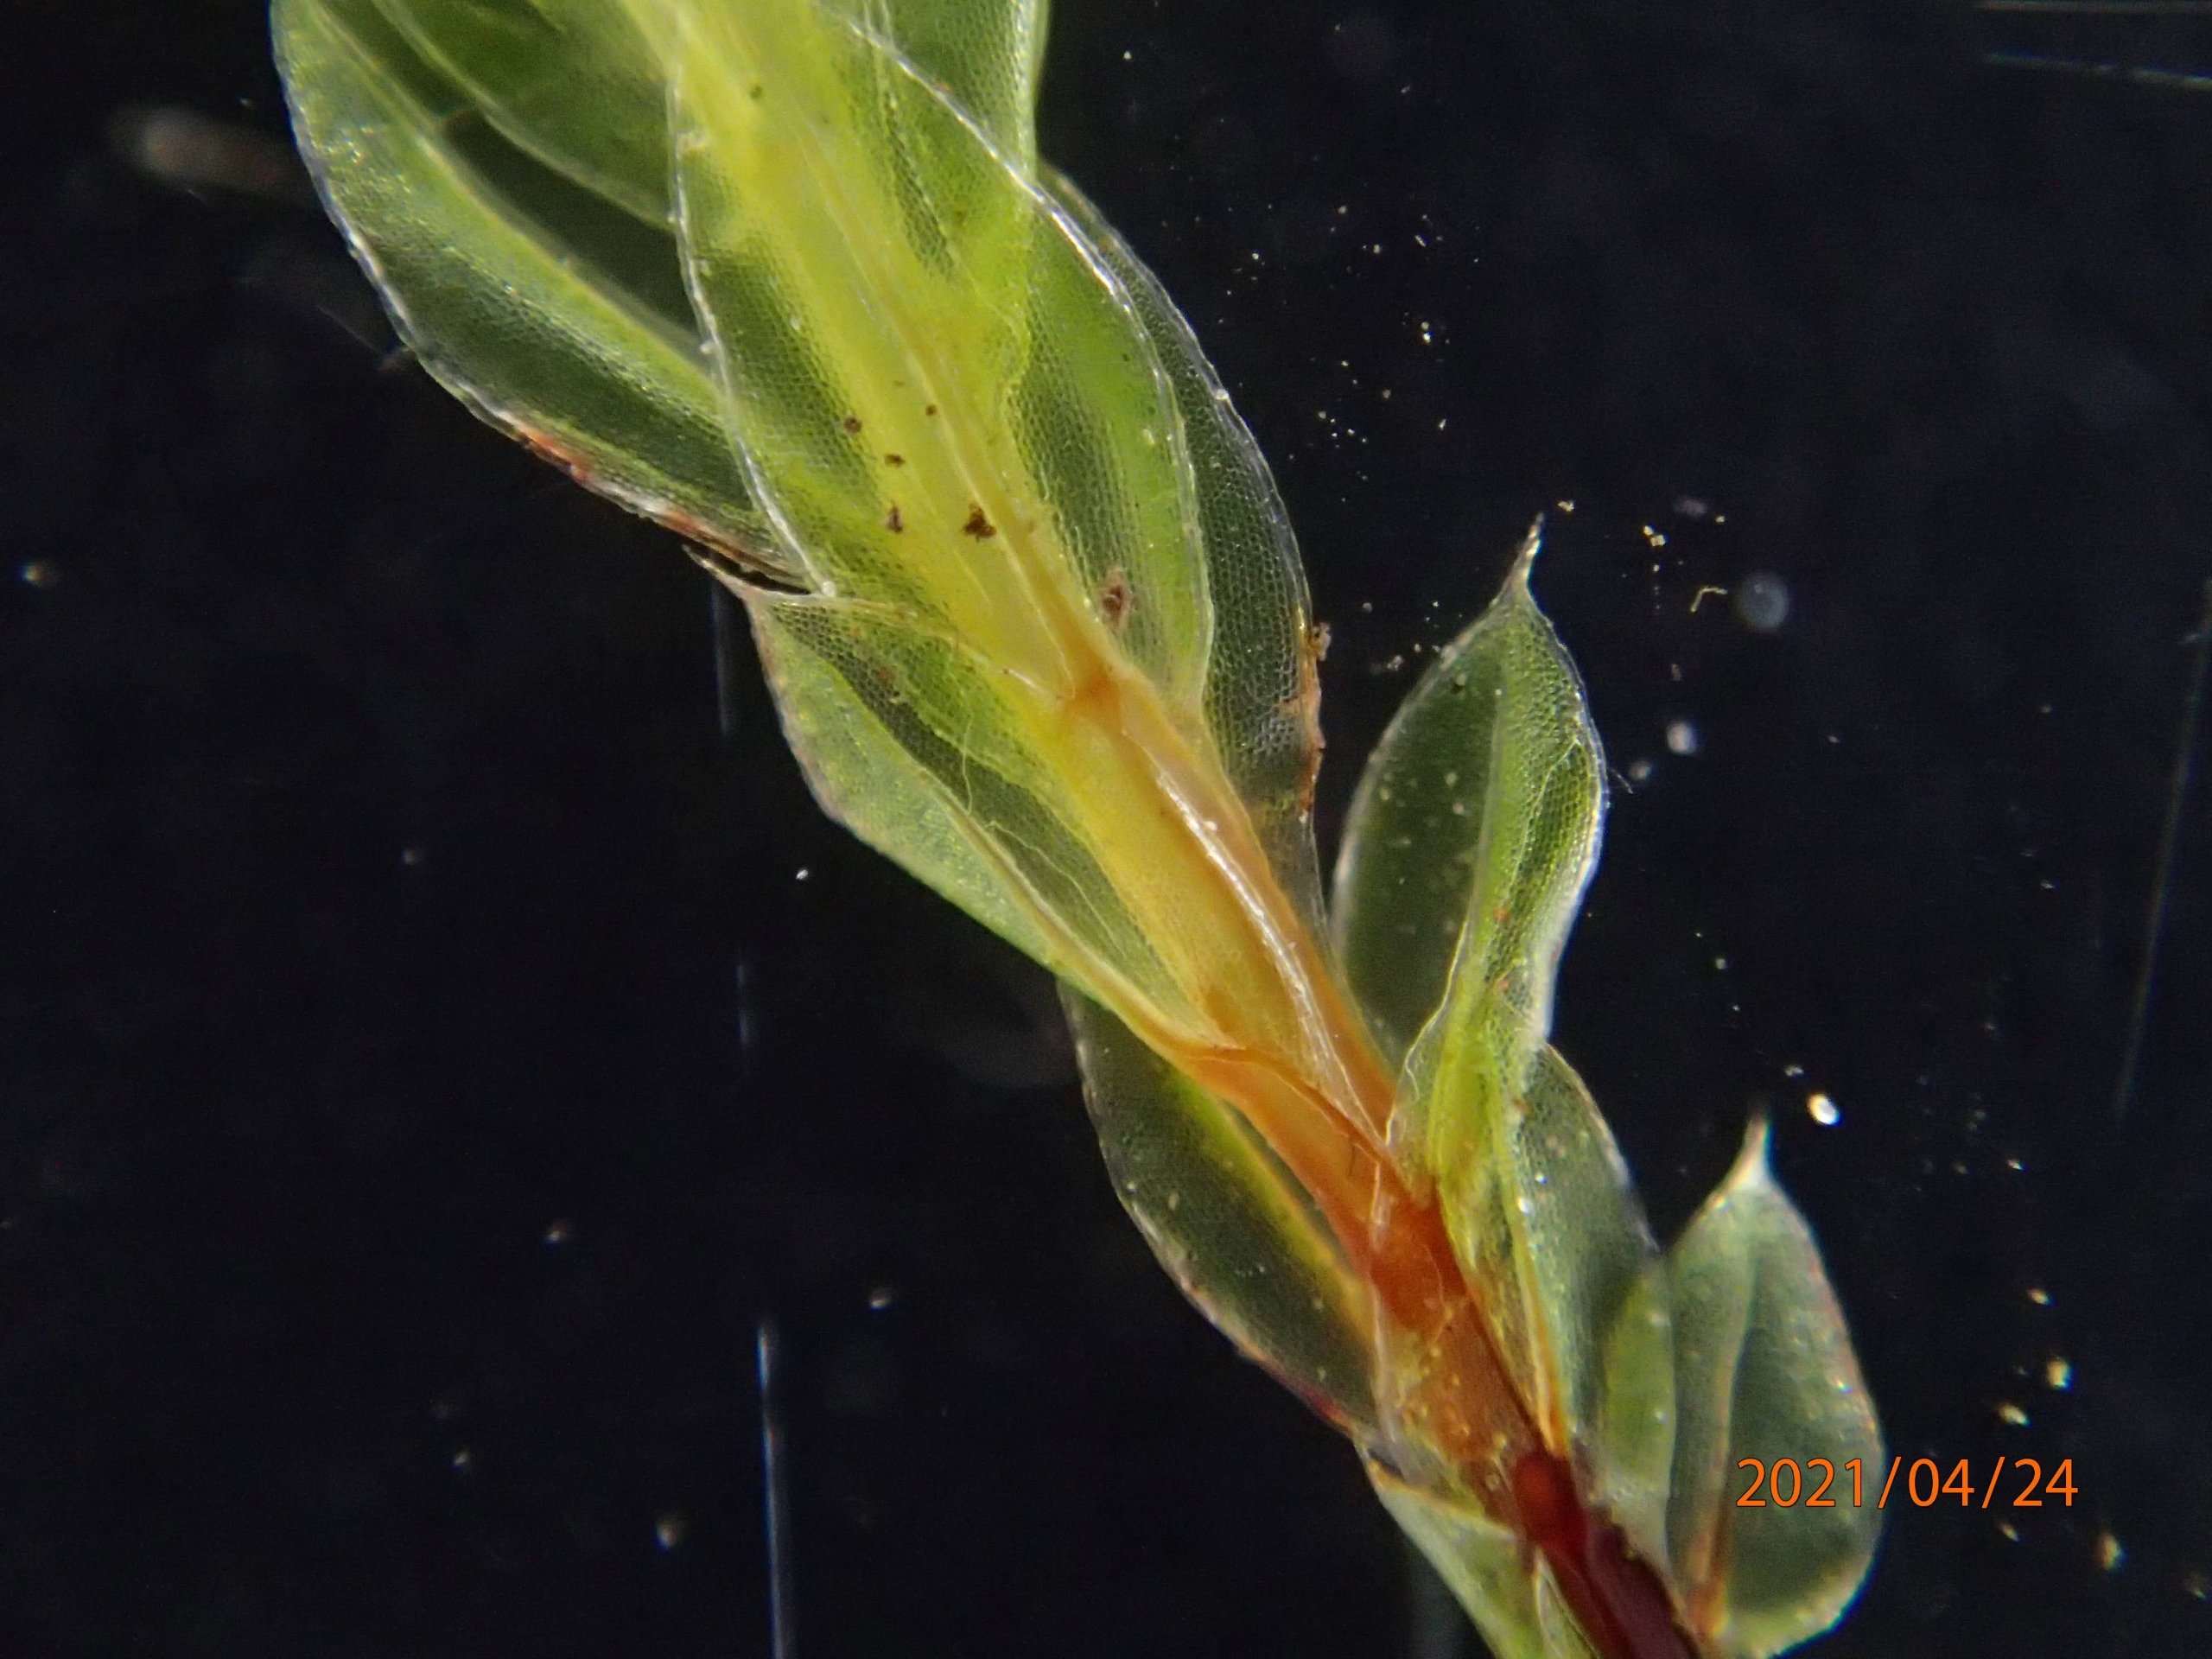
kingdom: Plantae
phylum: Bryophyta
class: Bryopsida
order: Bryales
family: Mniaceae
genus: Mnium
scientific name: Mnium marginatum
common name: Rødlig stjernemos
